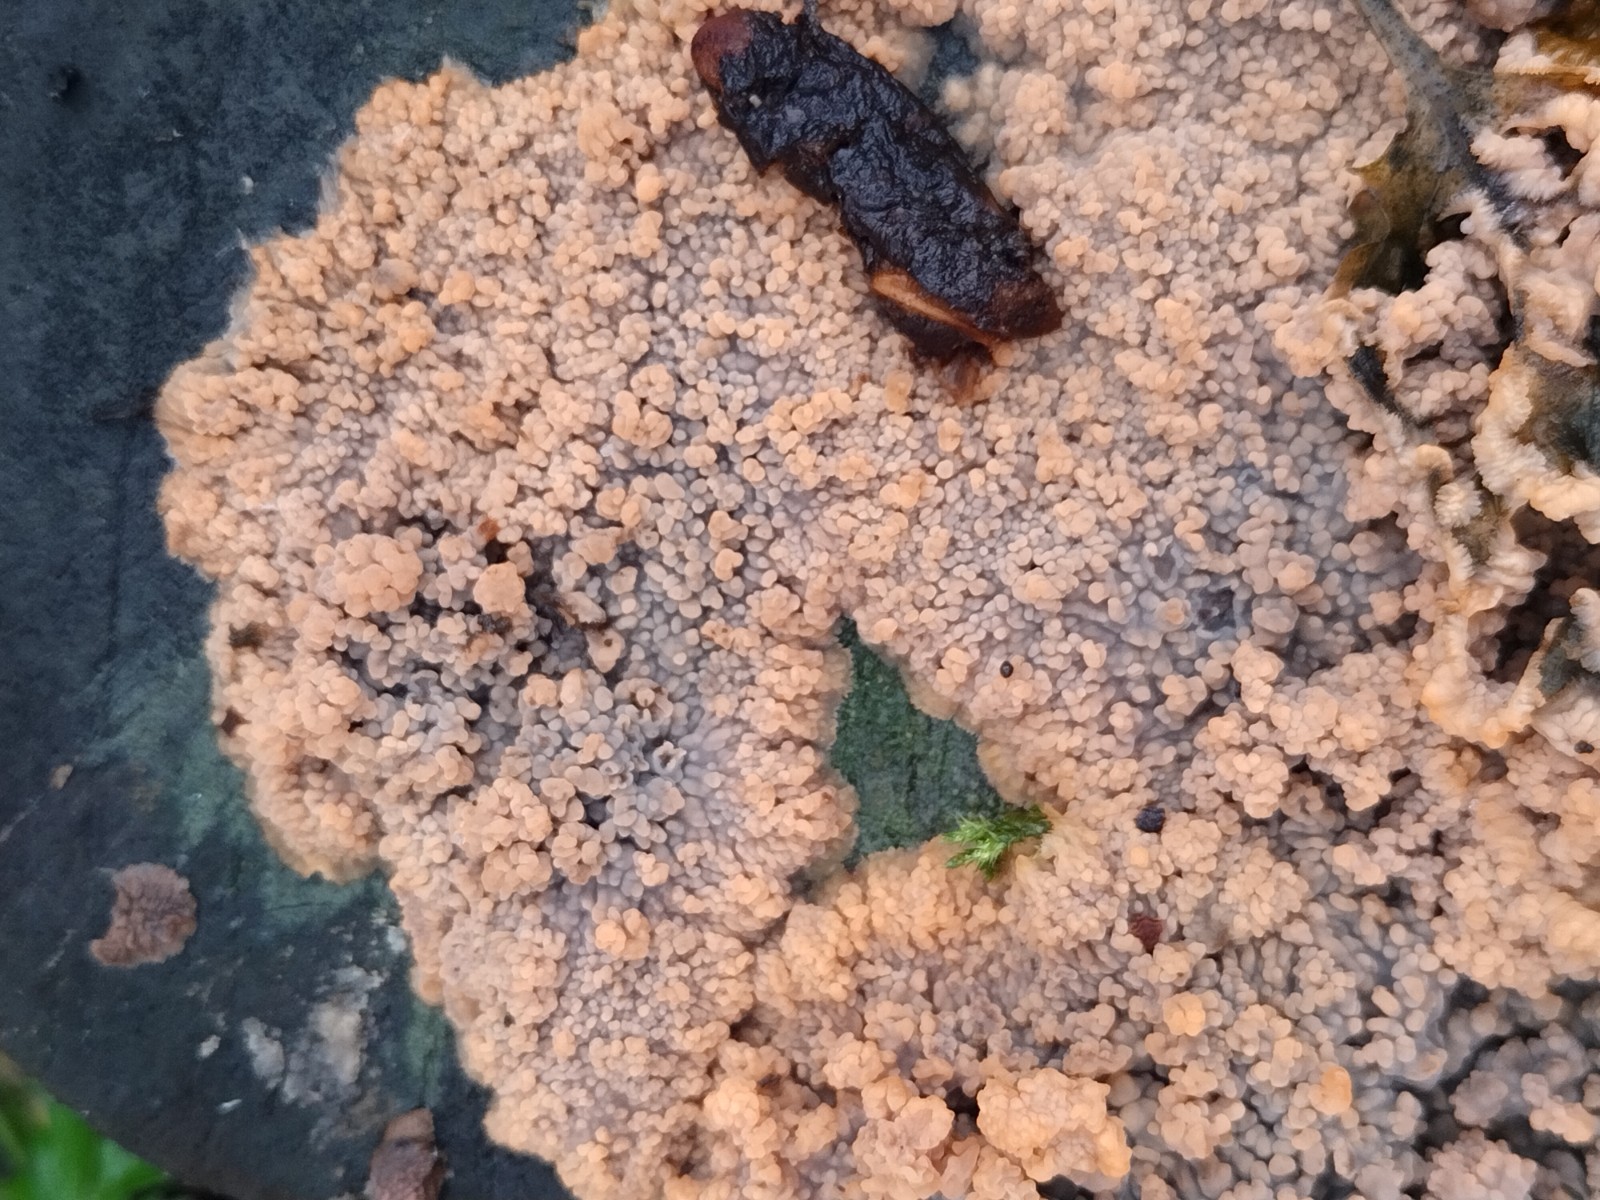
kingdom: Fungi
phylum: Basidiomycota
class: Agaricomycetes
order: Polyporales
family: Meruliaceae
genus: Phlebia
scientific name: Phlebia radiata
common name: stråle-åresvamp
